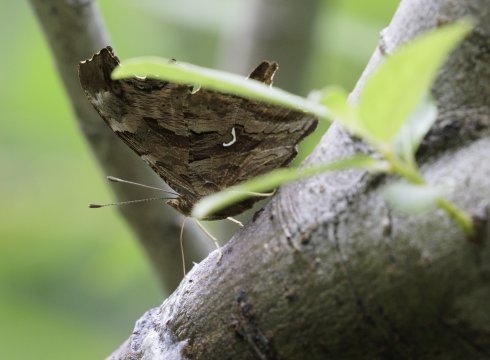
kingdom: Animalia
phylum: Arthropoda
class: Insecta
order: Lepidoptera
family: Nymphalidae
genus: Polygonia
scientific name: Polygonia satyrus
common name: Satyr Comma
